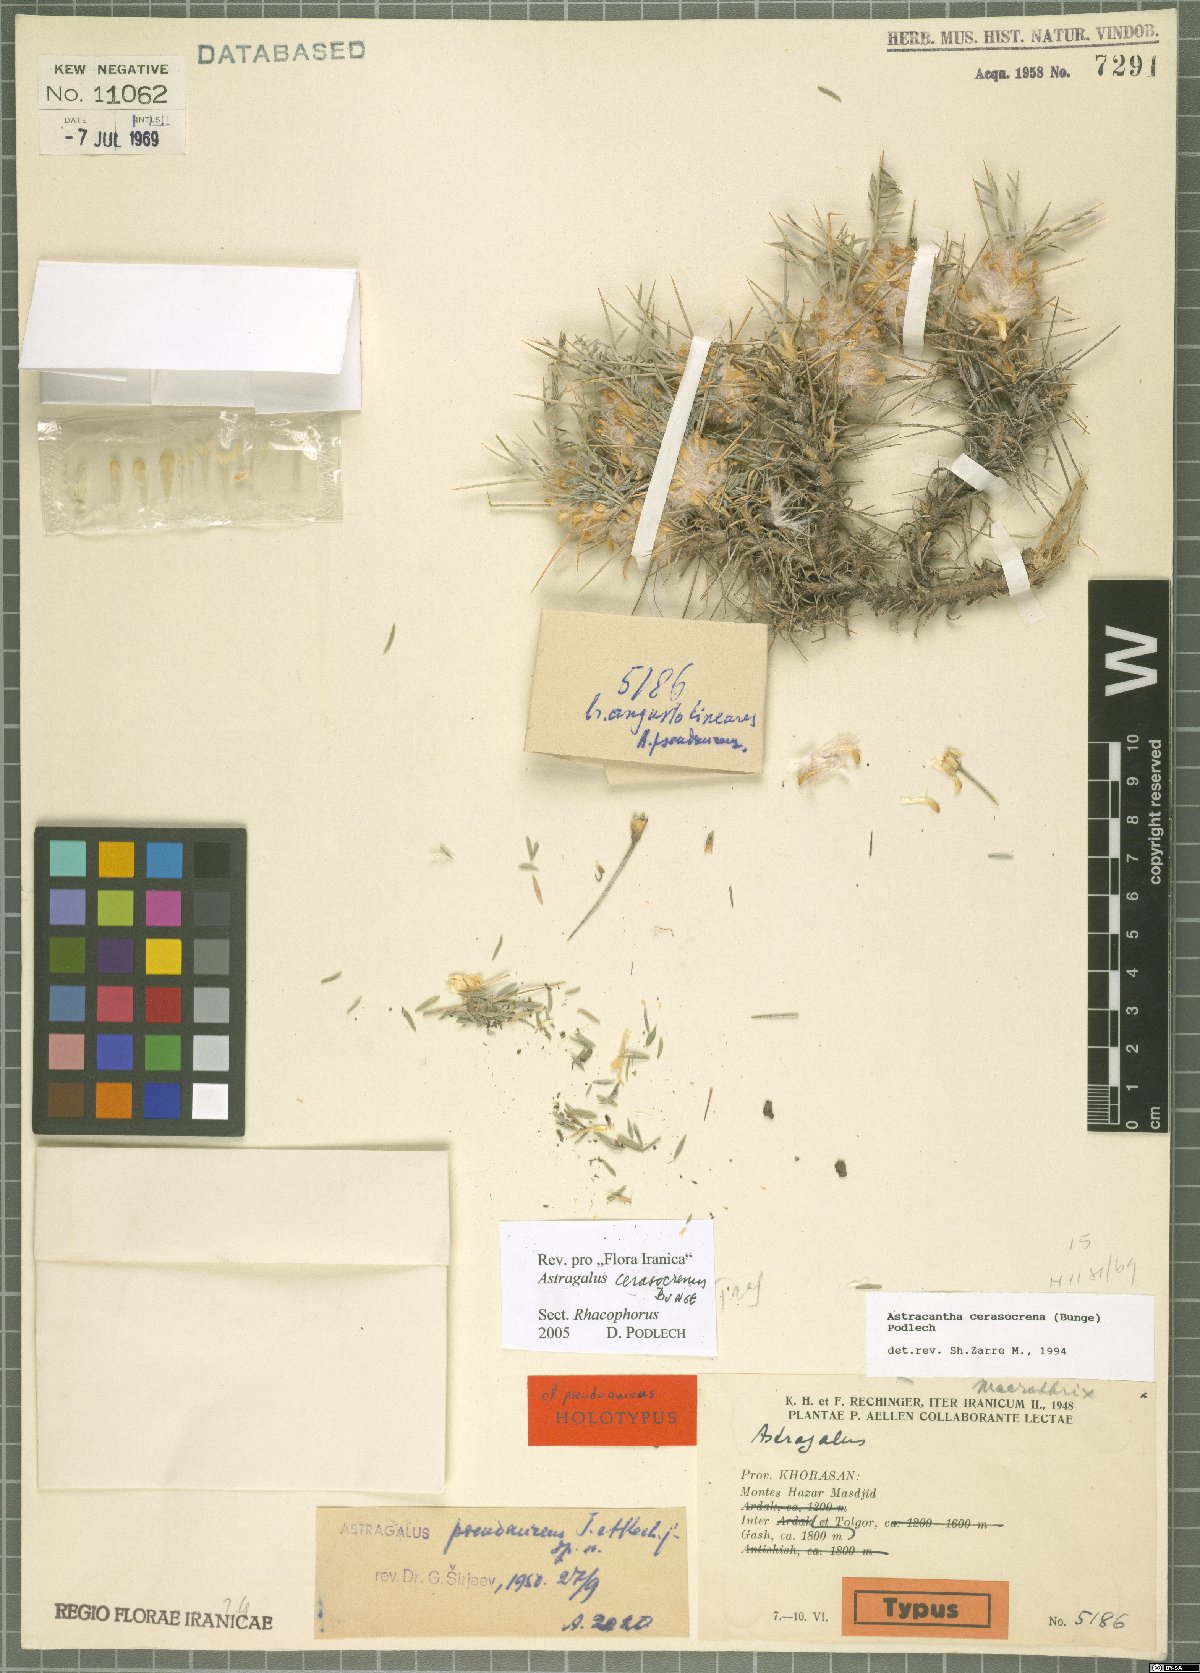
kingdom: Plantae
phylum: Tracheophyta
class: Magnoliopsida
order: Fabales
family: Fabaceae
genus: Astragalus
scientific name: Astragalus cerasocrenus
